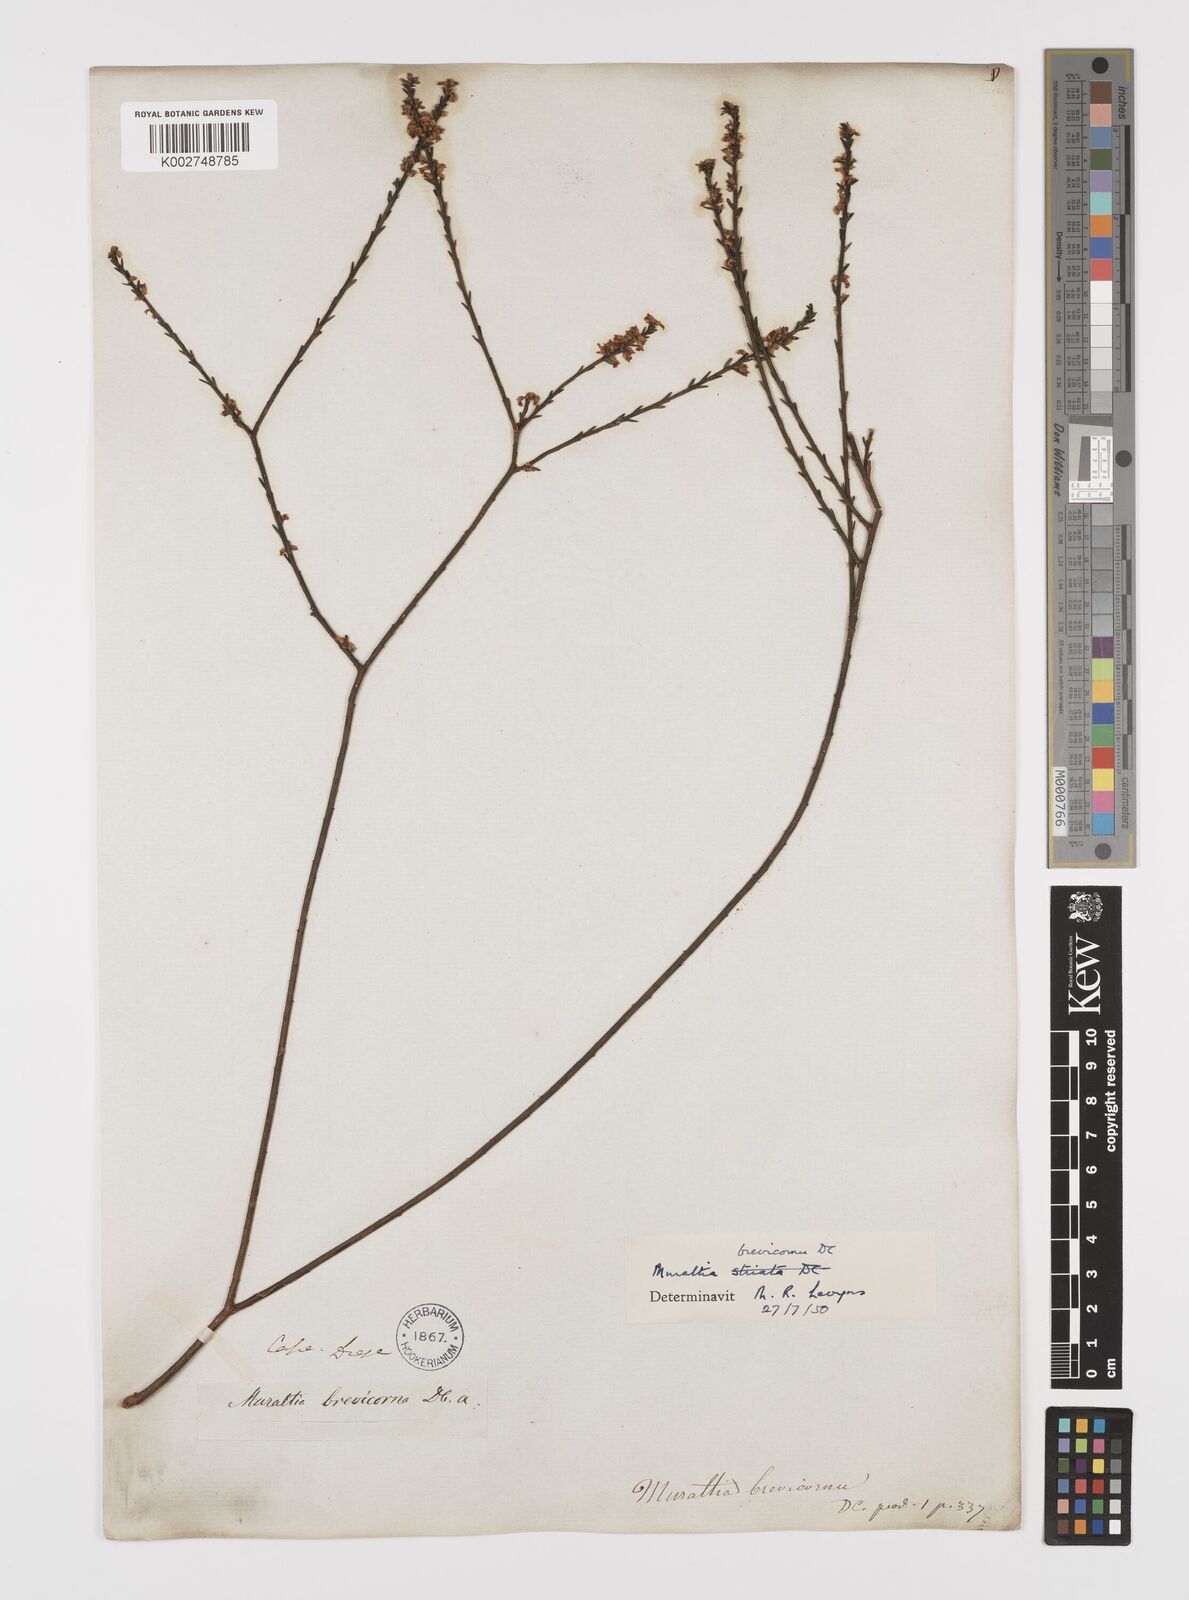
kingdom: Plantae
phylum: Tracheophyta
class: Magnoliopsida
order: Fabales
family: Polygalaceae
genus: Muraltia
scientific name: Muraltia striata
